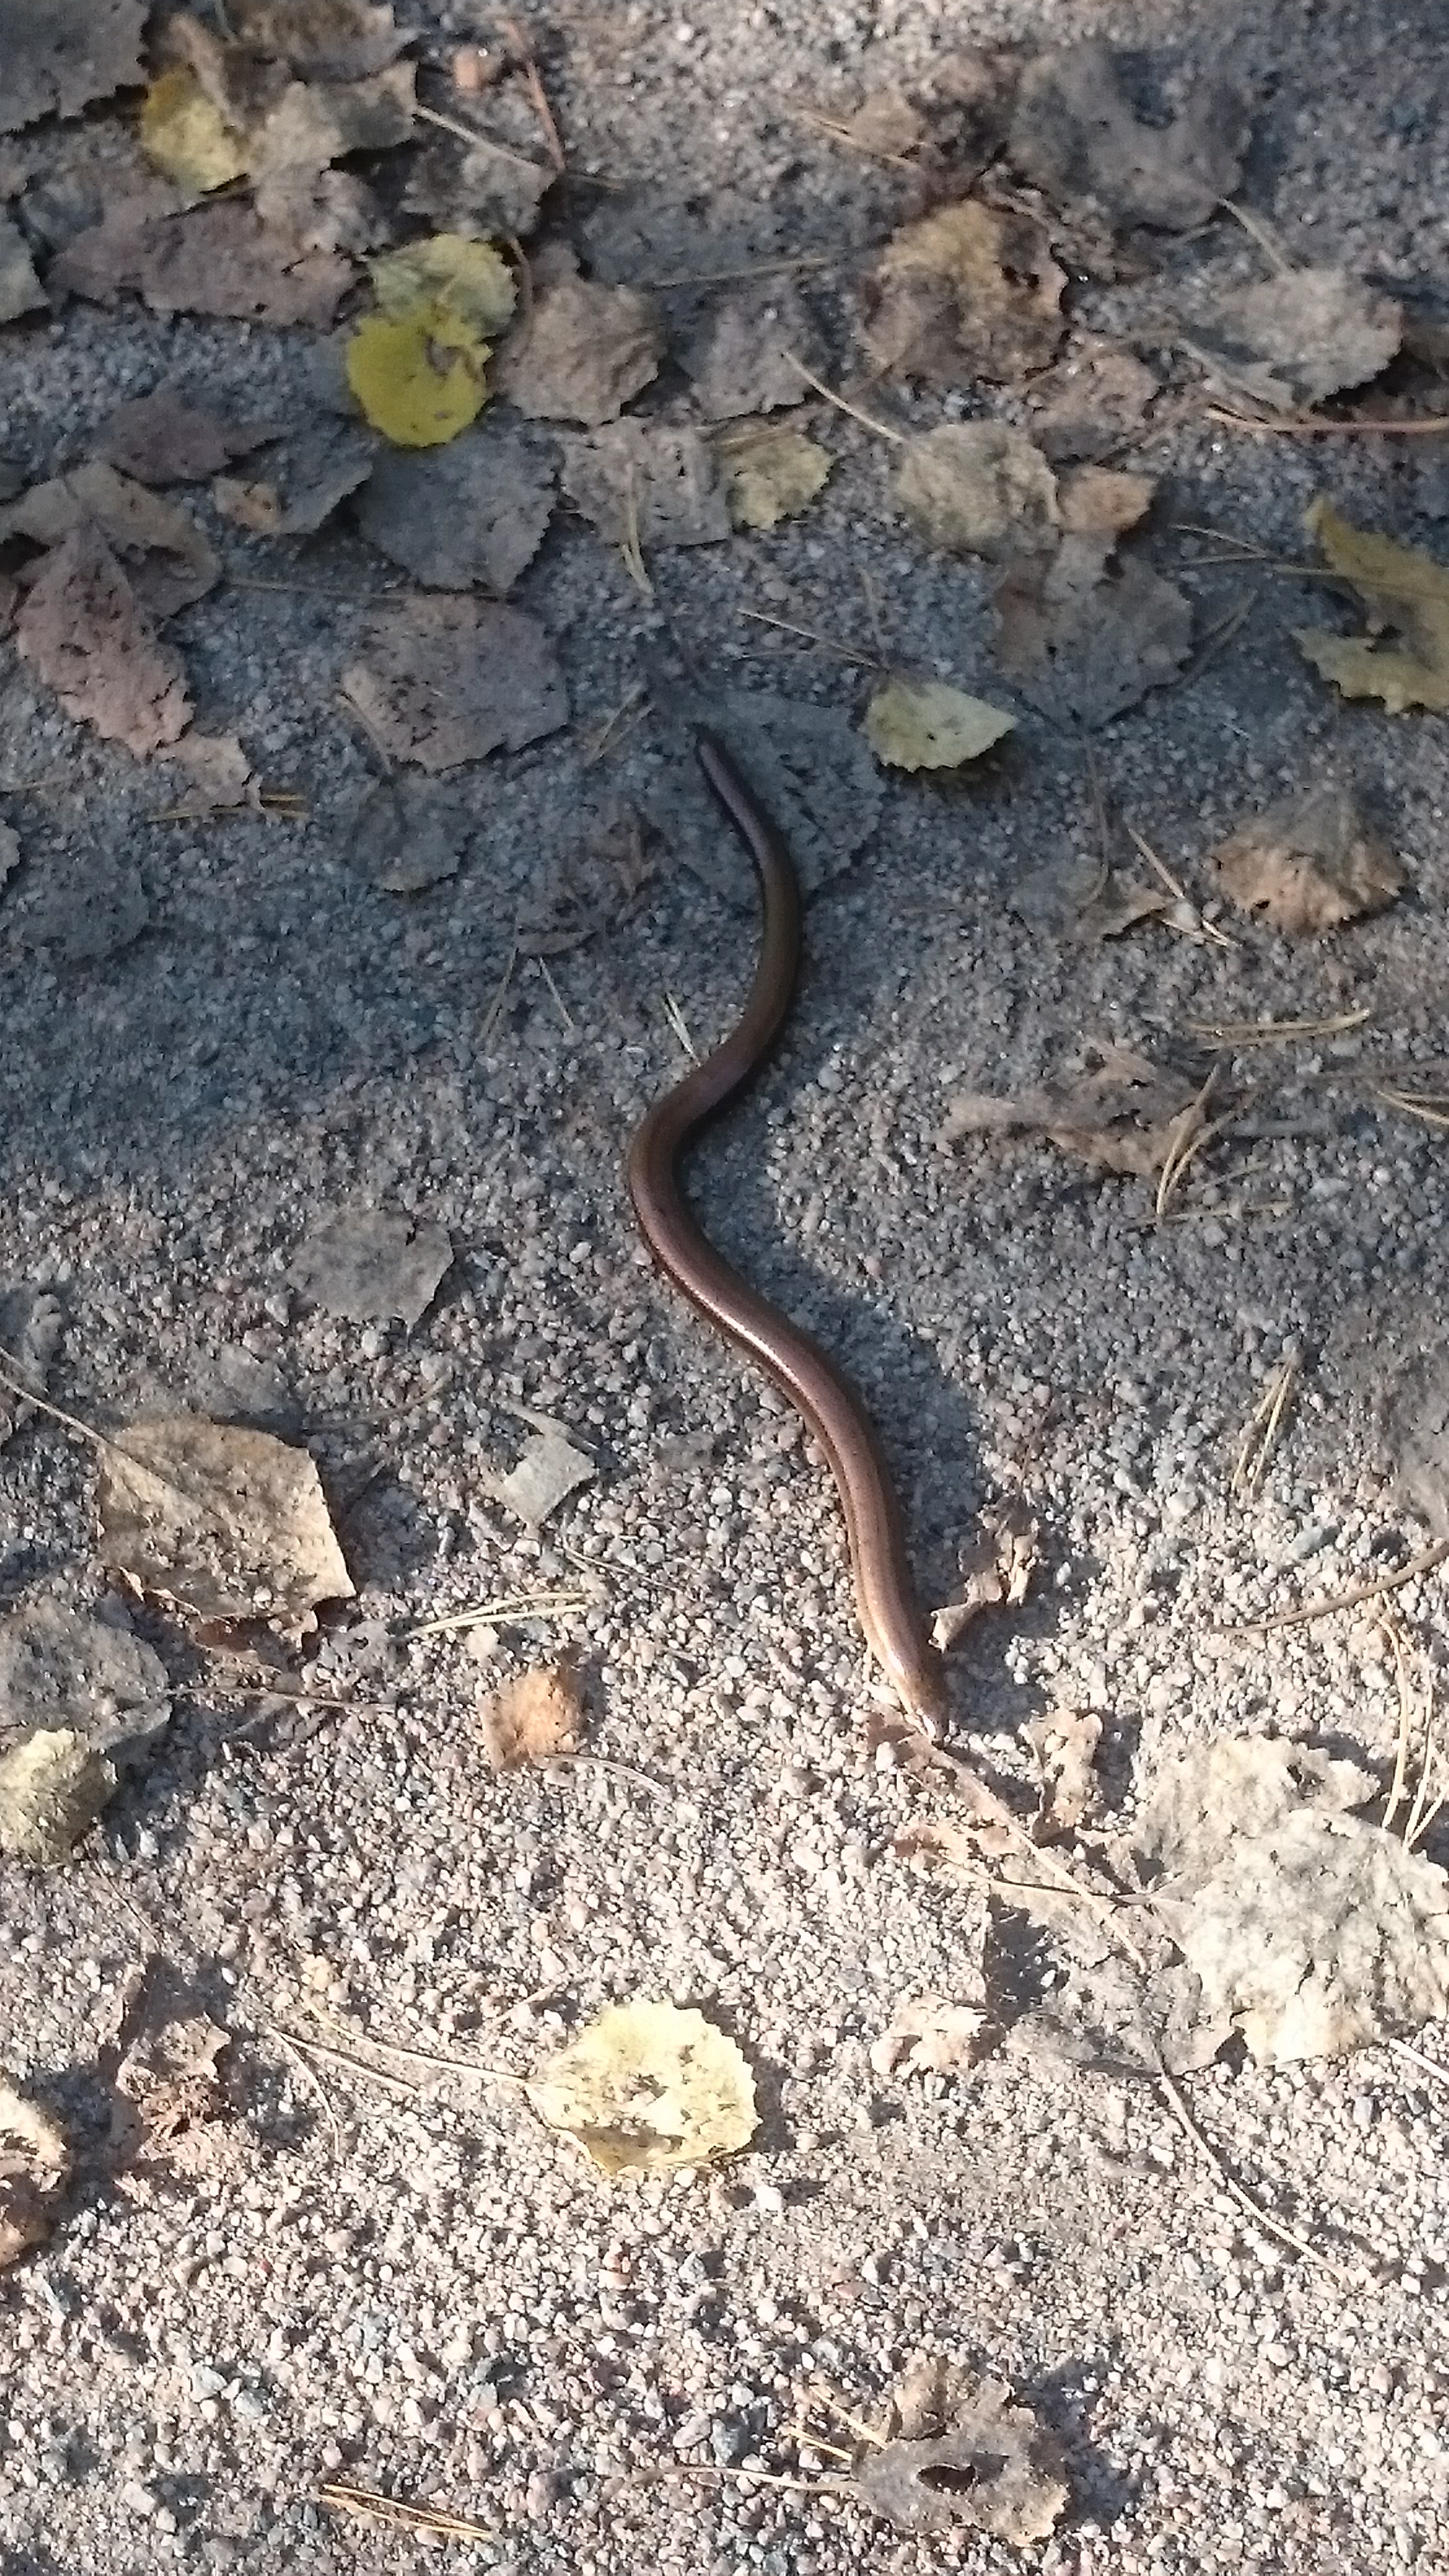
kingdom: Animalia
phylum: Chordata
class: Squamata
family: Anguidae
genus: Anguis
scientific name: Anguis colchica
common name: Slow worm
